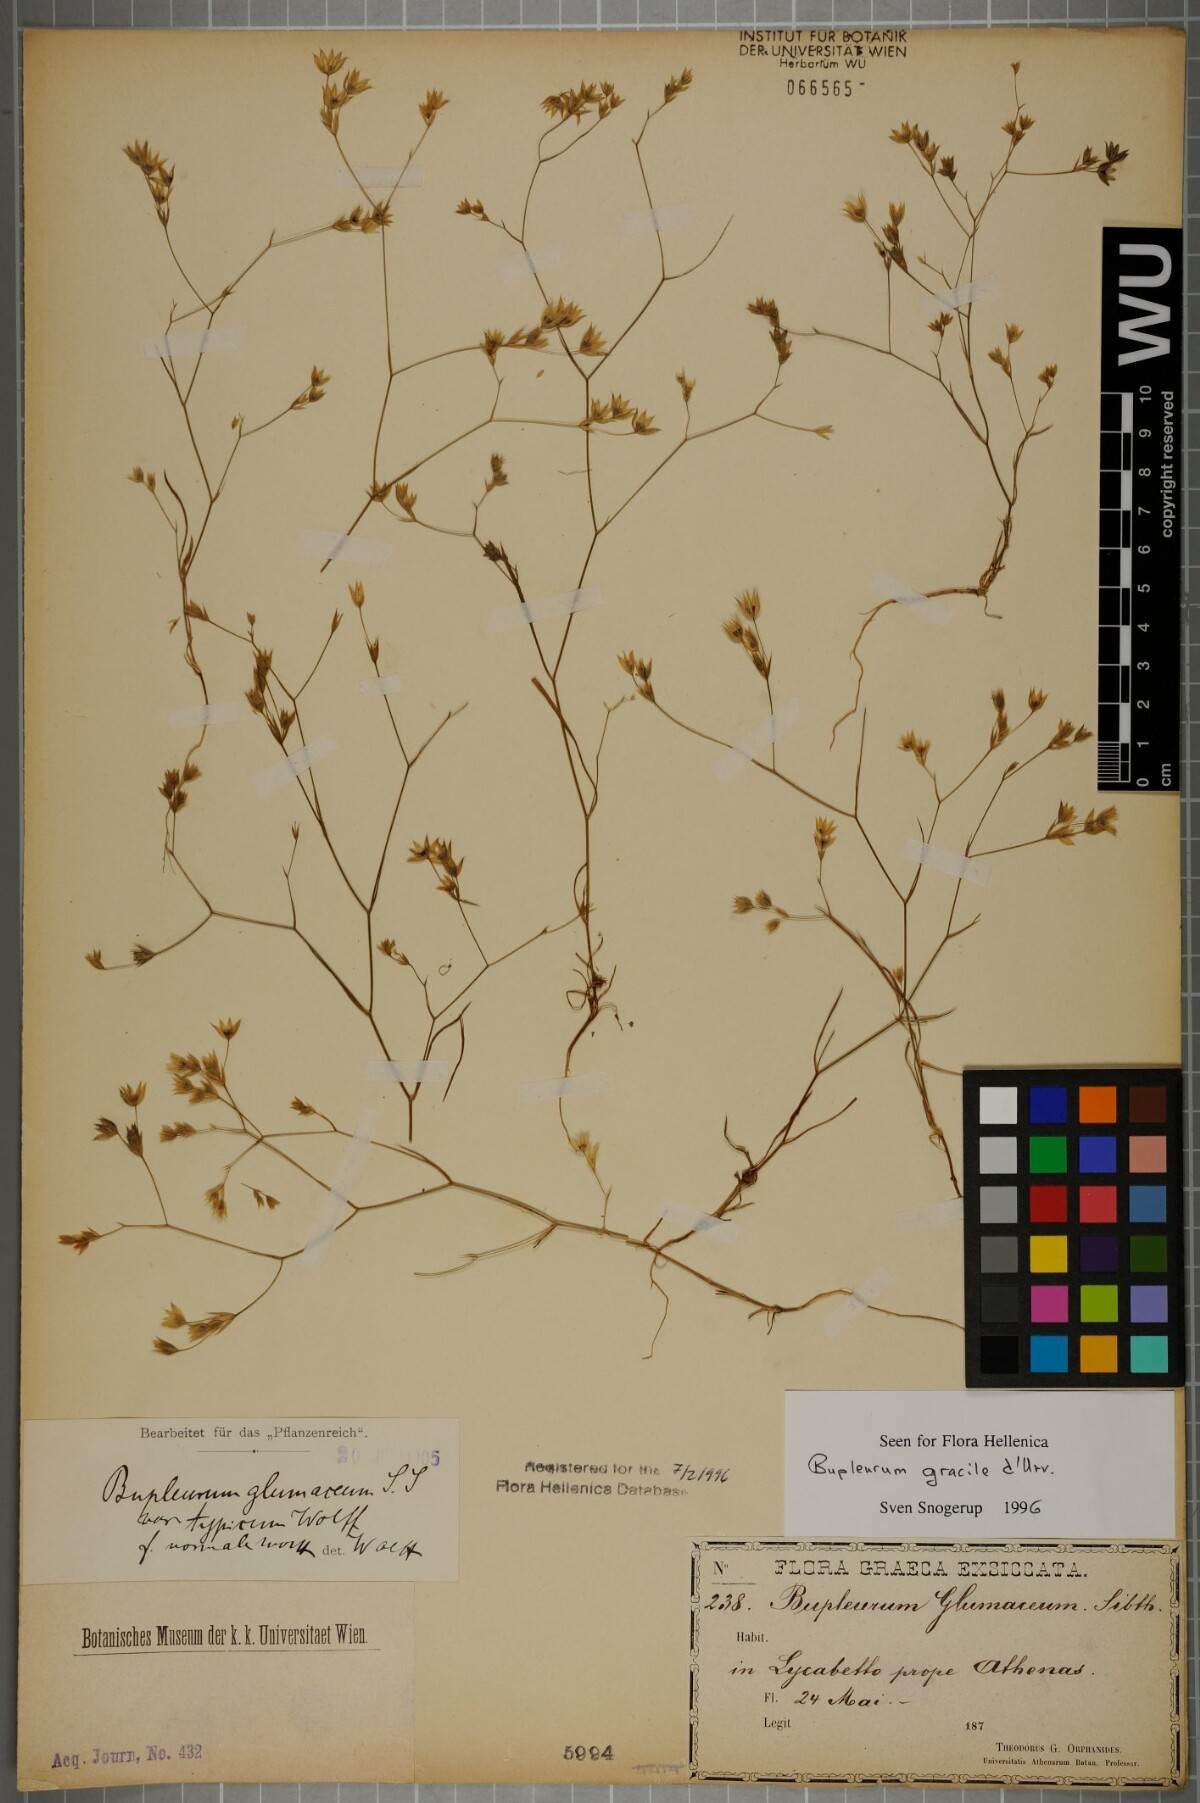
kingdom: Plantae
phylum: Tracheophyta
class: Magnoliopsida
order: Apiales
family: Apiaceae
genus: Bupleurum
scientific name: Bupleurum gracile
